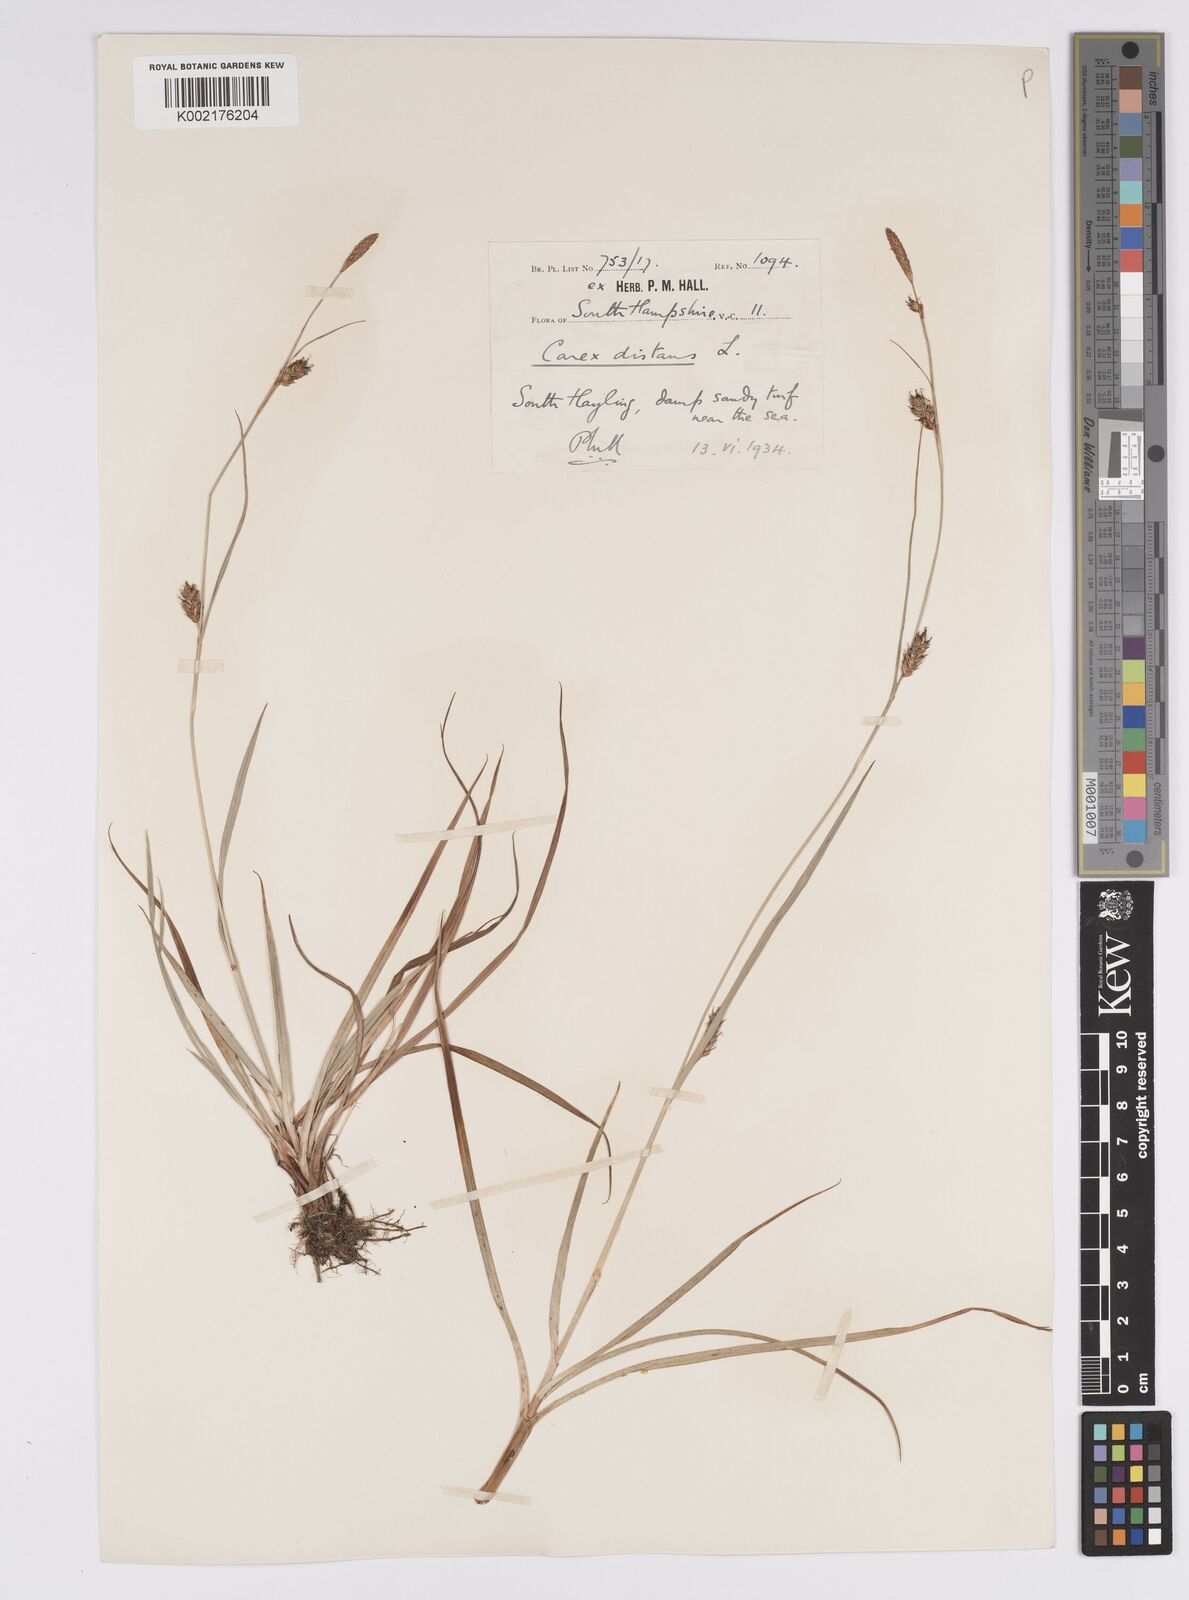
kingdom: Plantae
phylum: Tracheophyta
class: Liliopsida
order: Poales
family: Cyperaceae
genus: Carex
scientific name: Carex distans
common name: Distant sedge
